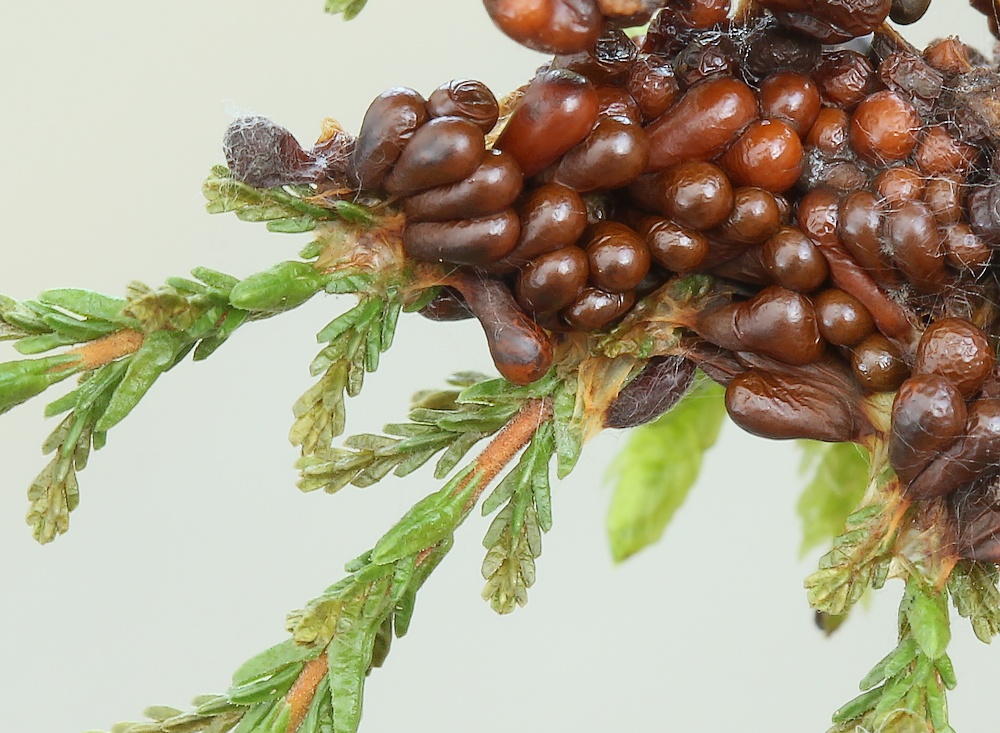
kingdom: Protozoa
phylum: Mycetozoa
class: Myxomycetes
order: Physarales
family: Physaraceae
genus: Leocarpus
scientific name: Leocarpus fragilis
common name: poleret glatfrø
